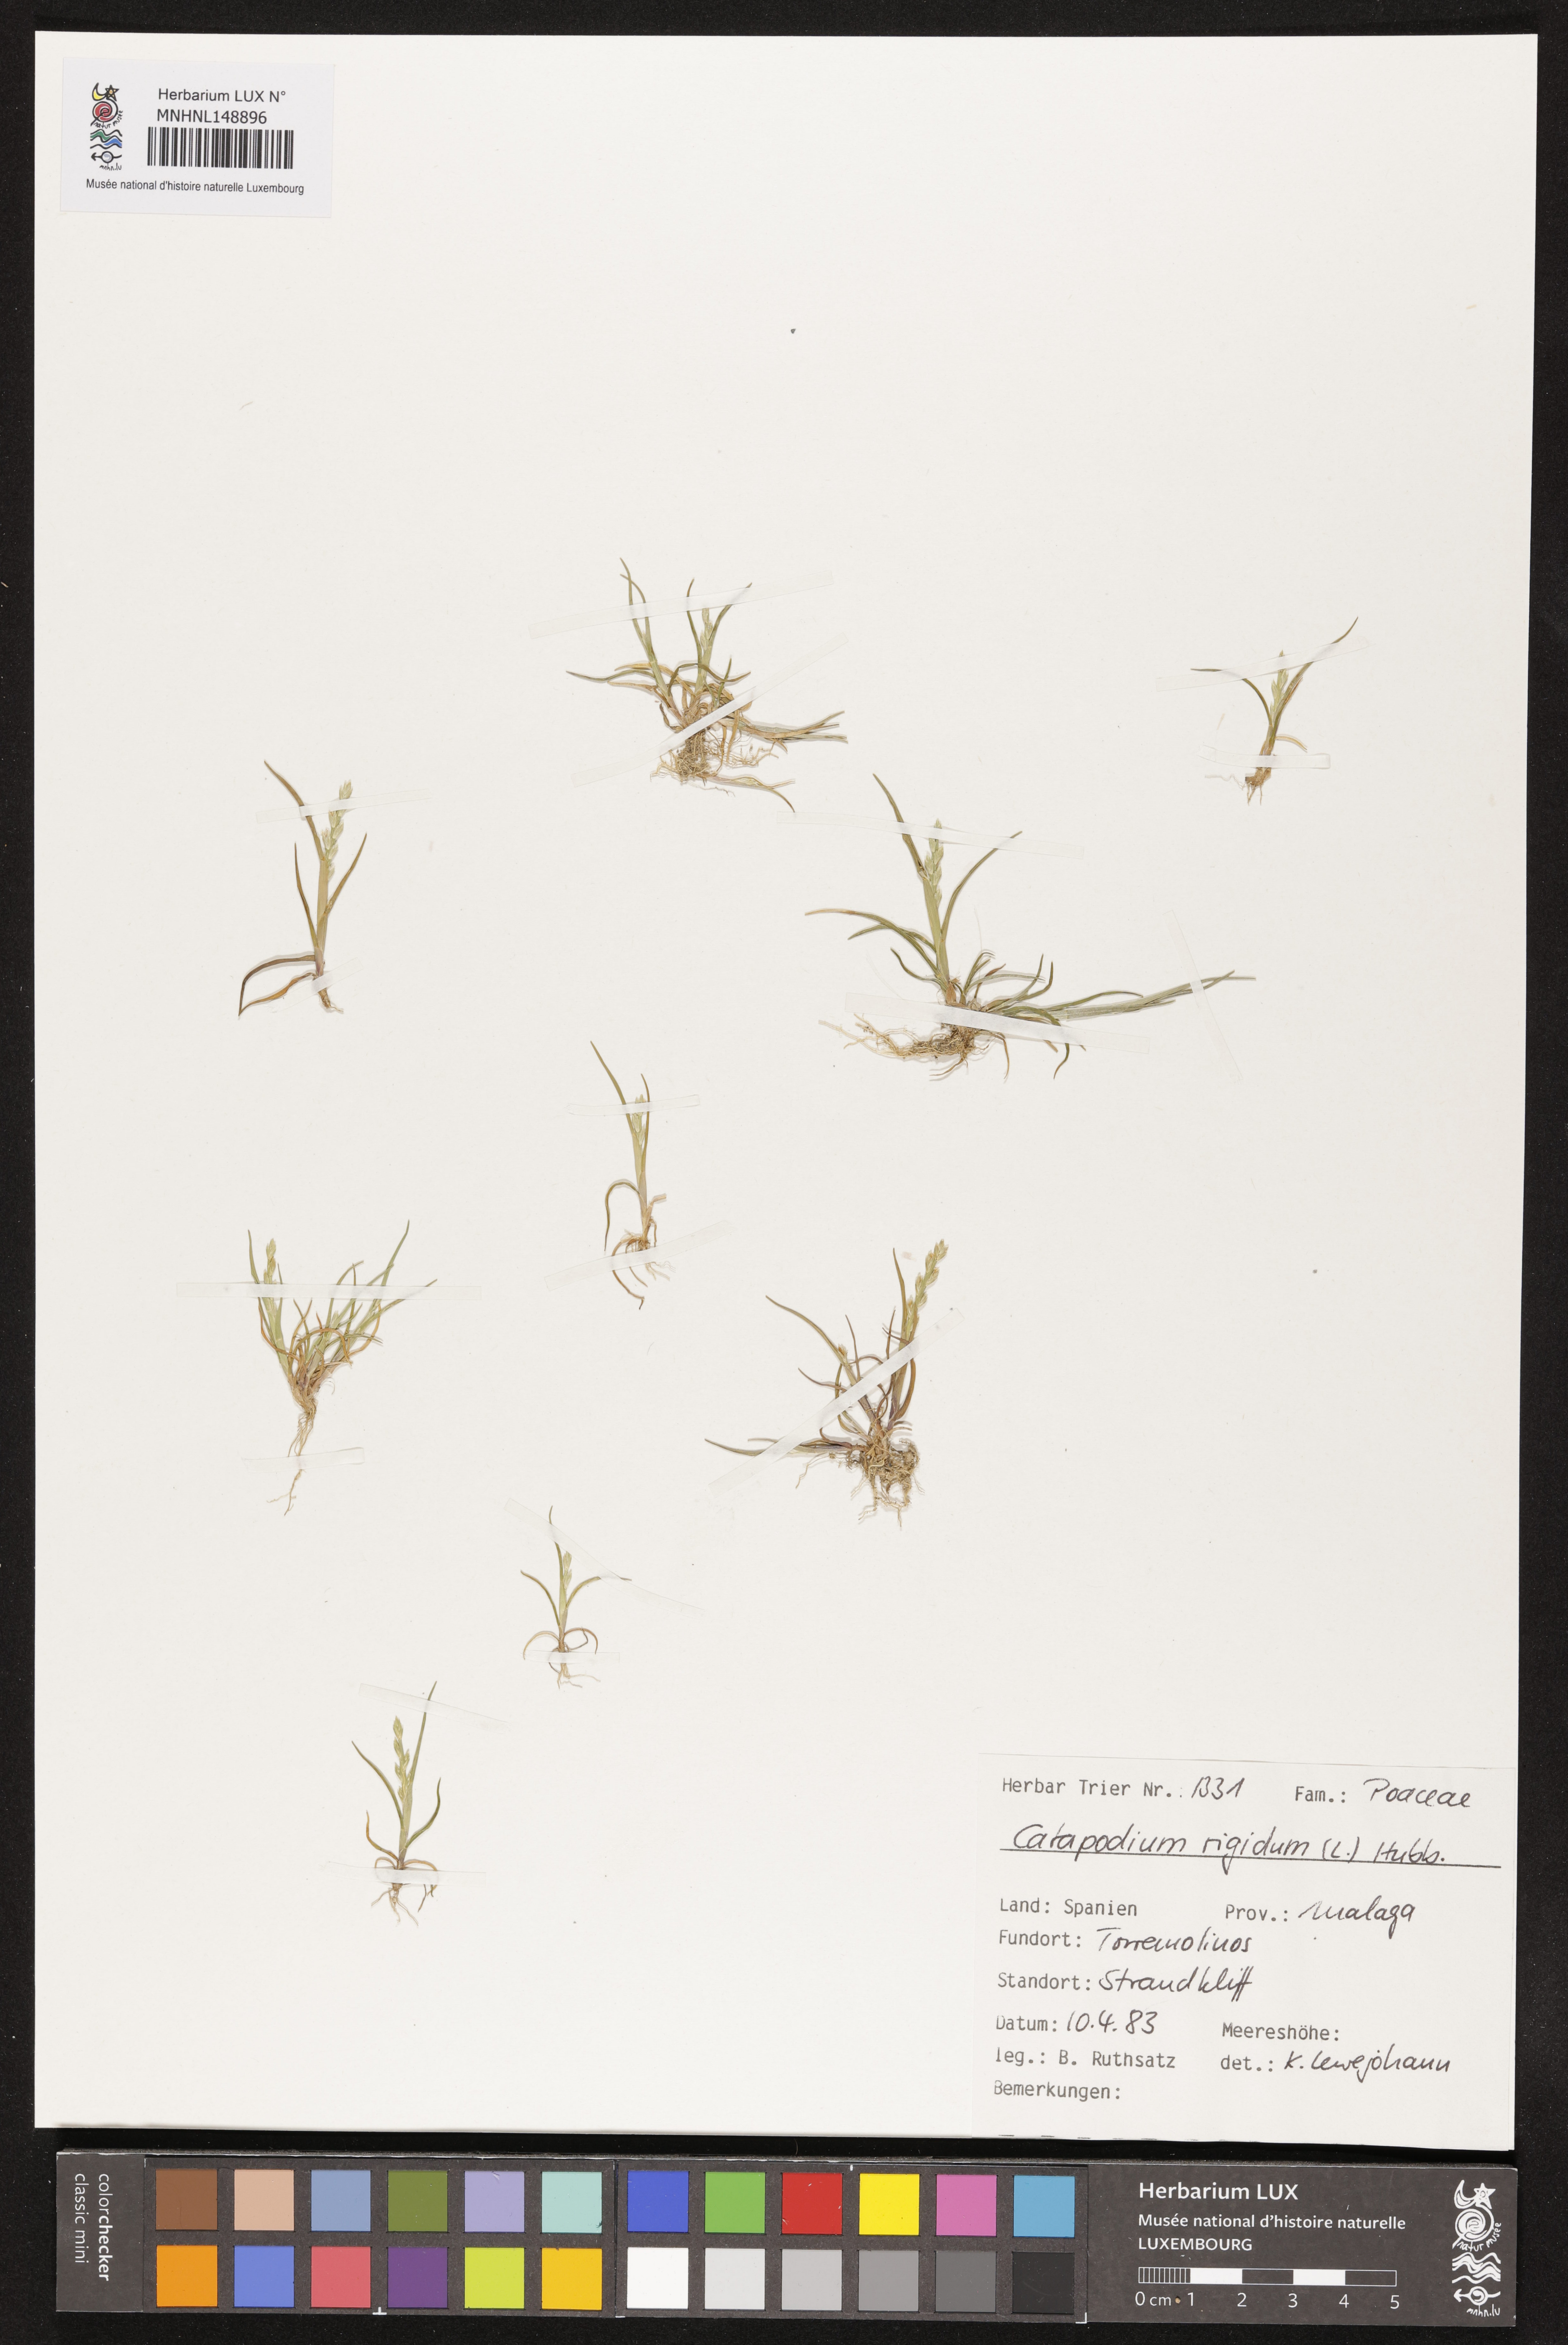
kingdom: Plantae
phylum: Tracheophyta
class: Liliopsida
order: Poales
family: Poaceae
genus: Catapodium
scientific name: Catapodium rigidum
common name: Fern-grass
